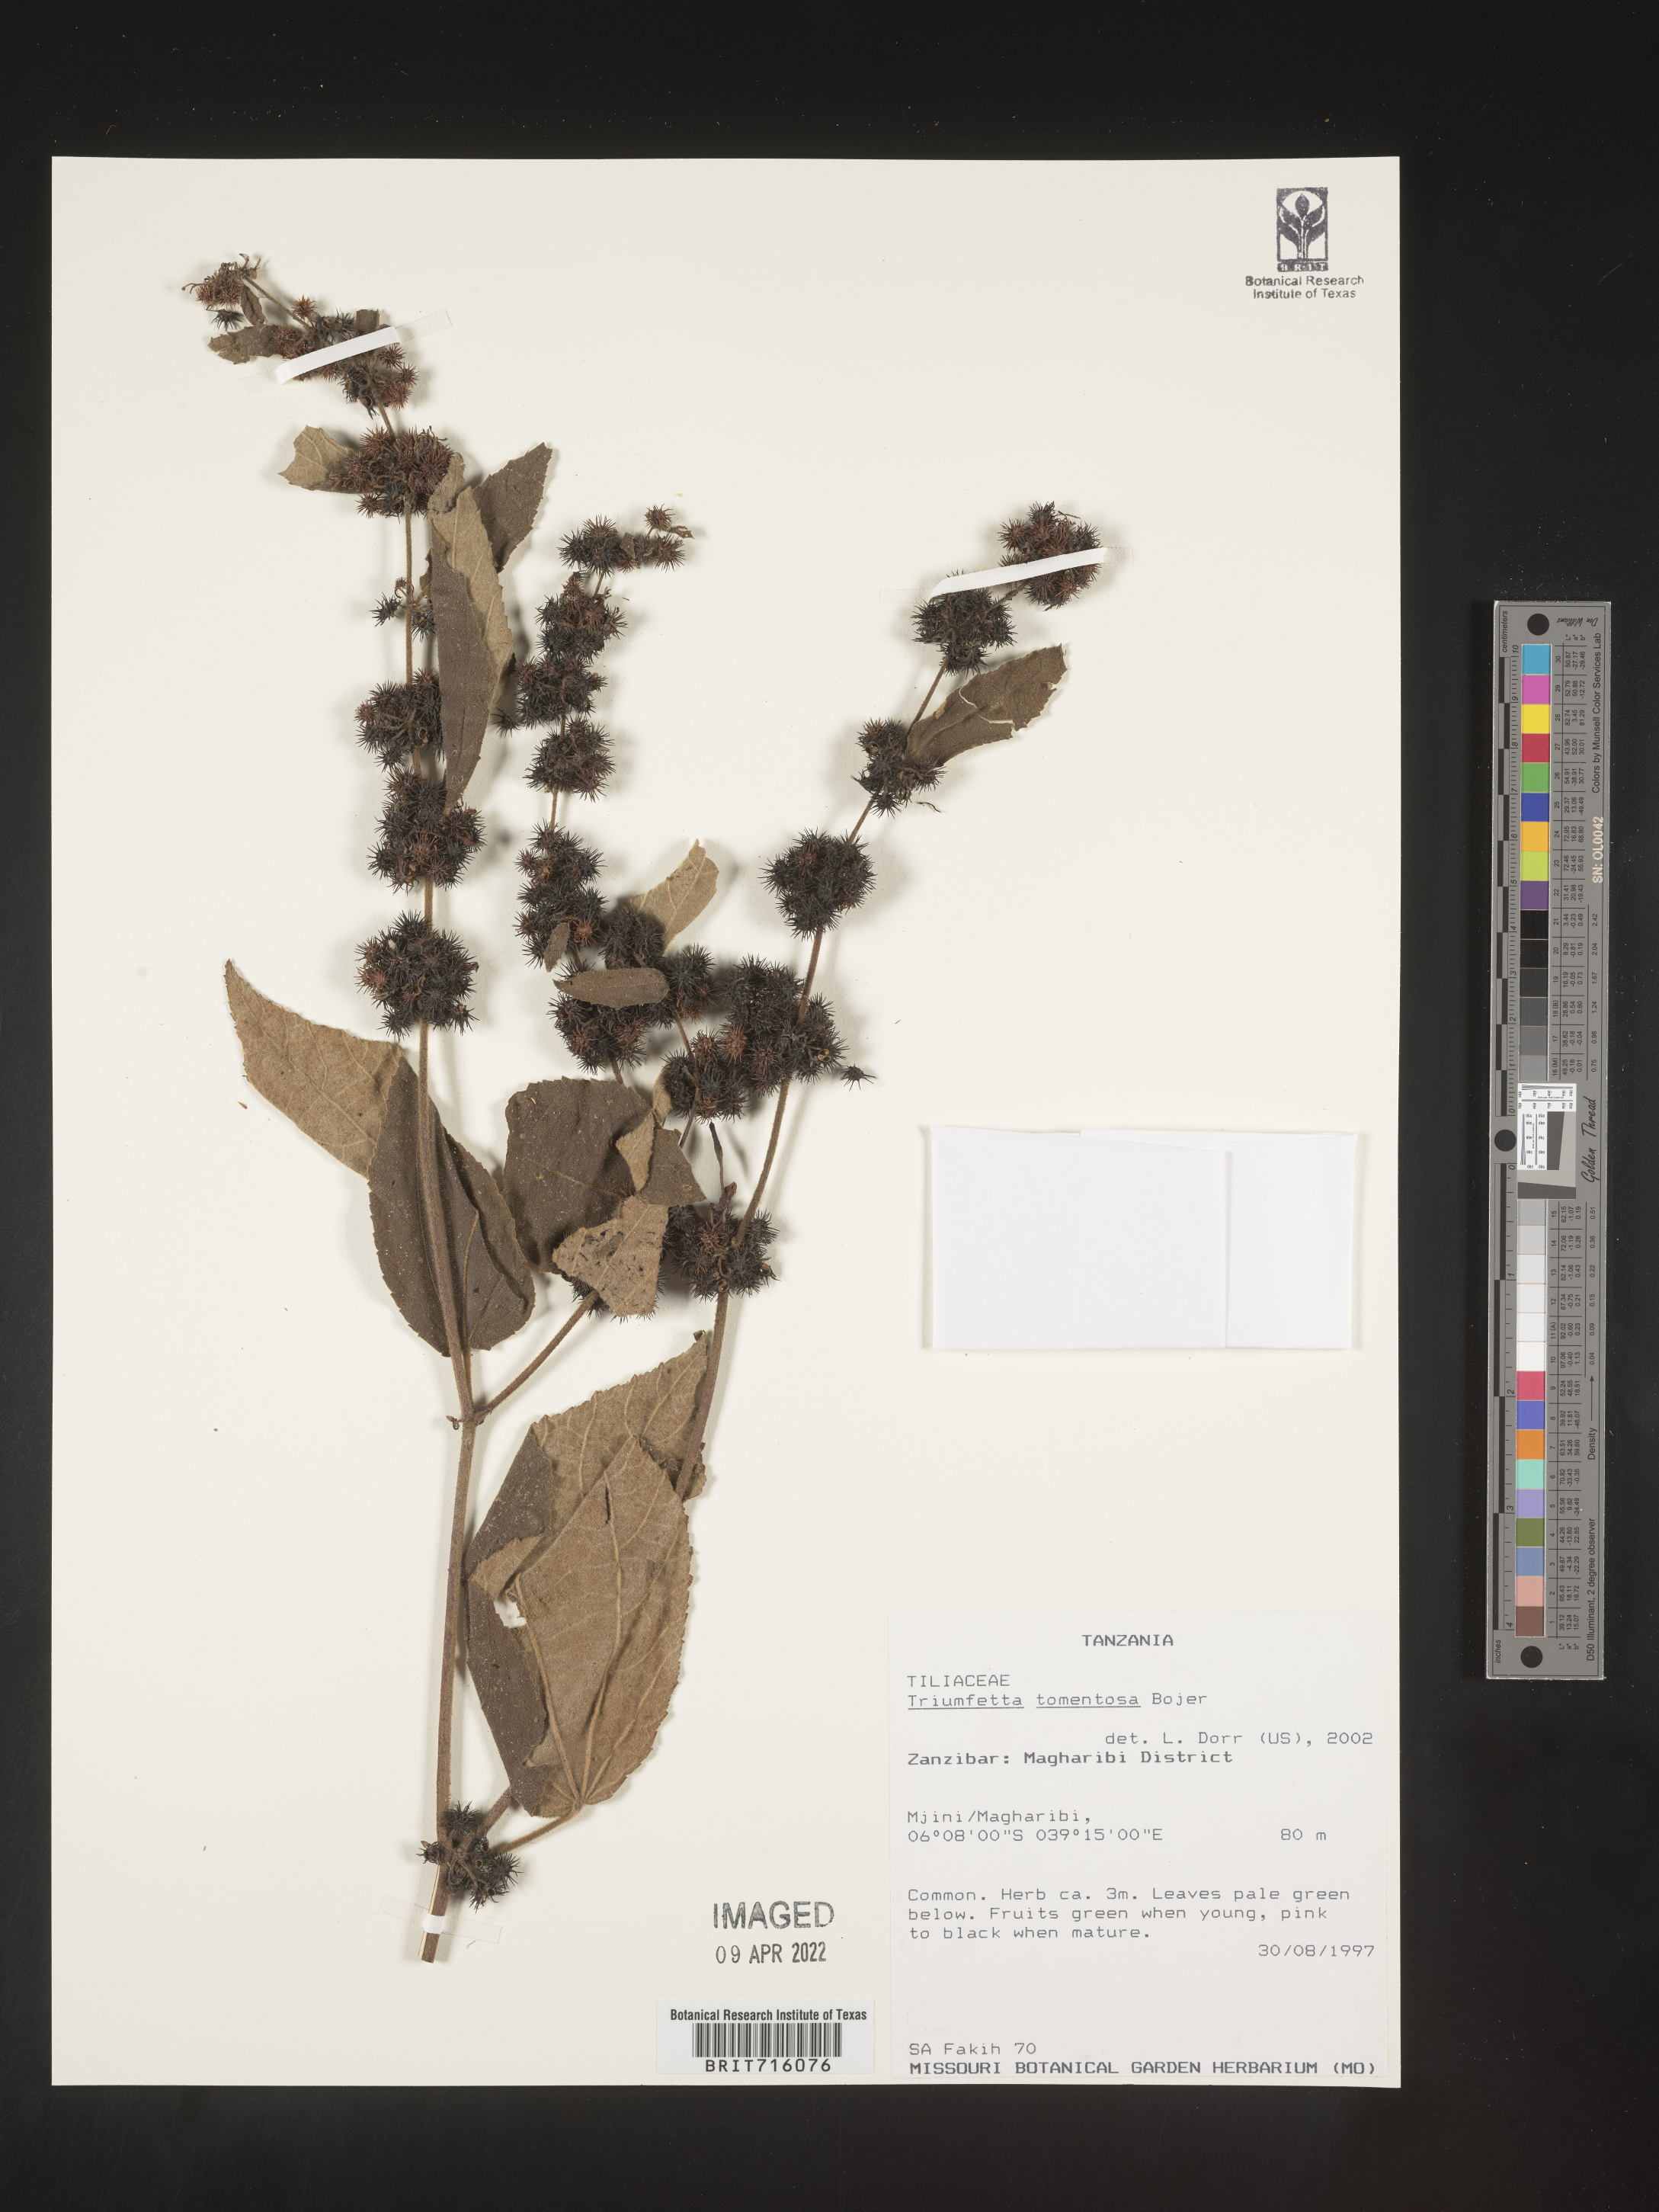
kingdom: Plantae
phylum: Tracheophyta
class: Magnoliopsida
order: Malvales
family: Malvaceae
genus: Triumfetta
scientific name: Triumfetta
